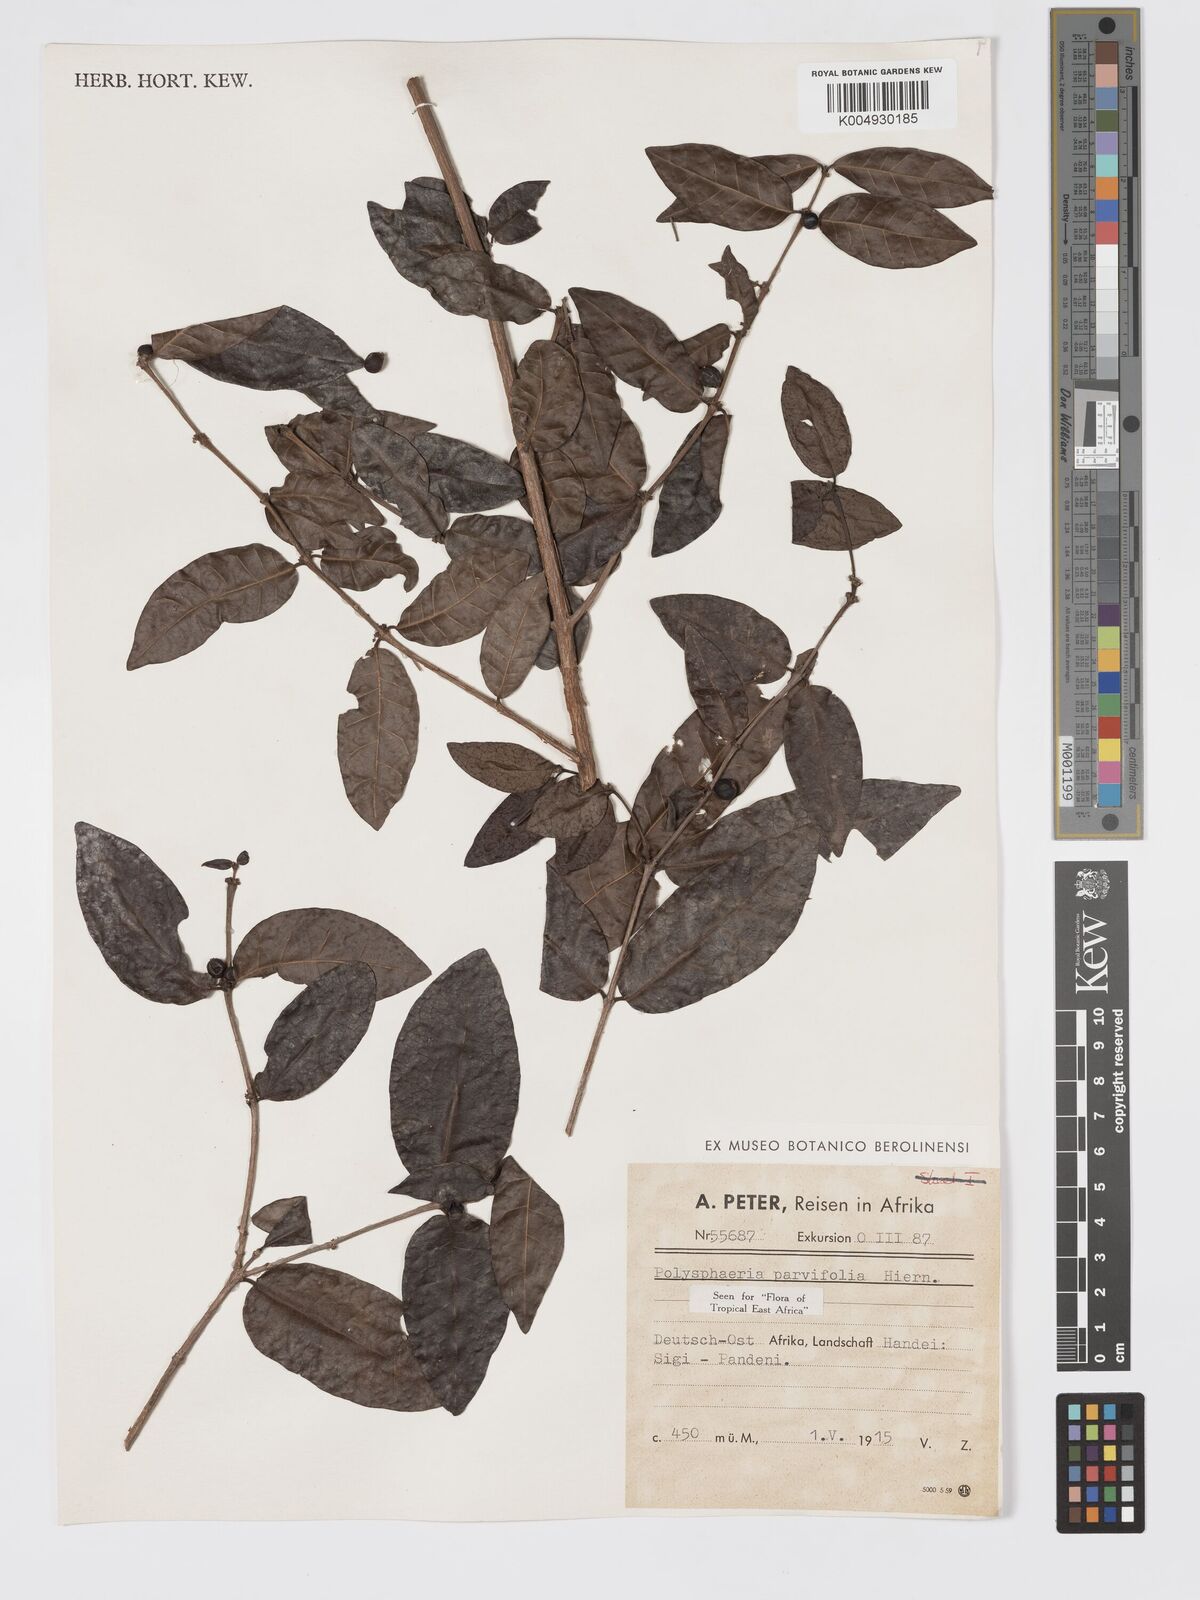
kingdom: Plantae
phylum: Tracheophyta
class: Magnoliopsida
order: Gentianales
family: Rubiaceae
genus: Polysphaeria
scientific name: Polysphaeria parvifolia
